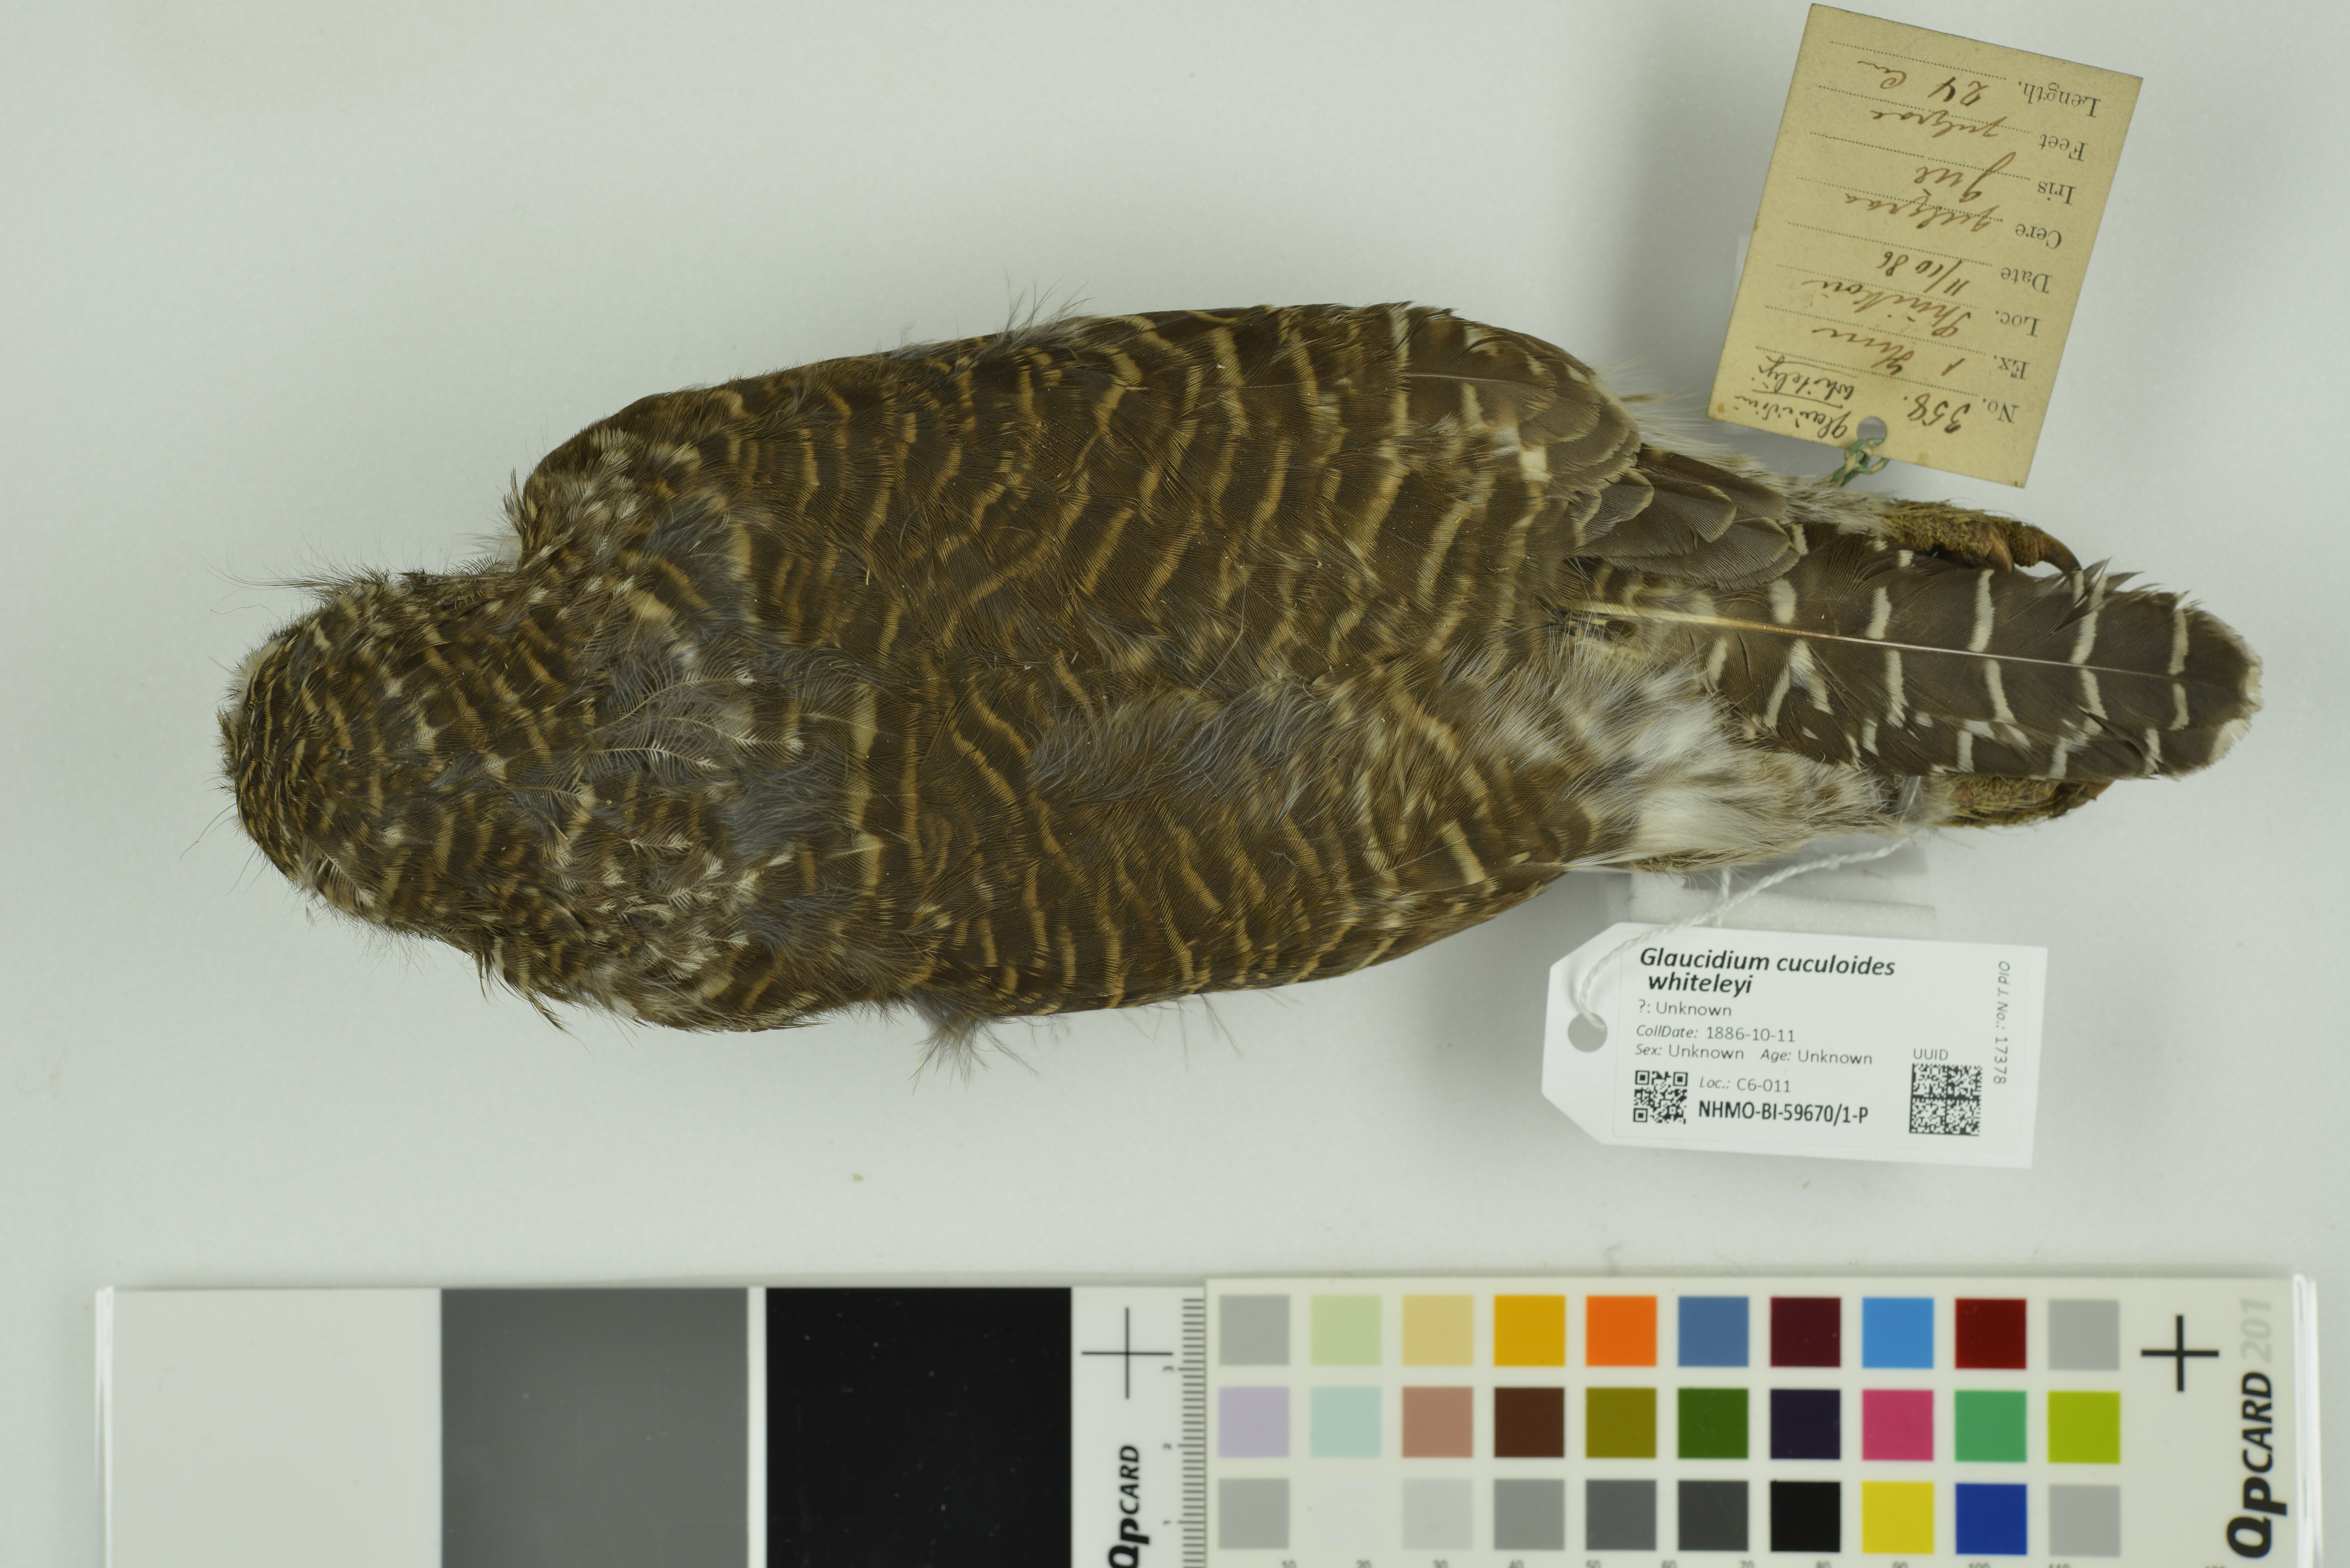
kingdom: Animalia
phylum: Chordata
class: Aves
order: Strigiformes
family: Strigidae
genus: Glaucidium
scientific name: Glaucidium cuculoides
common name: Asian barred owlet
